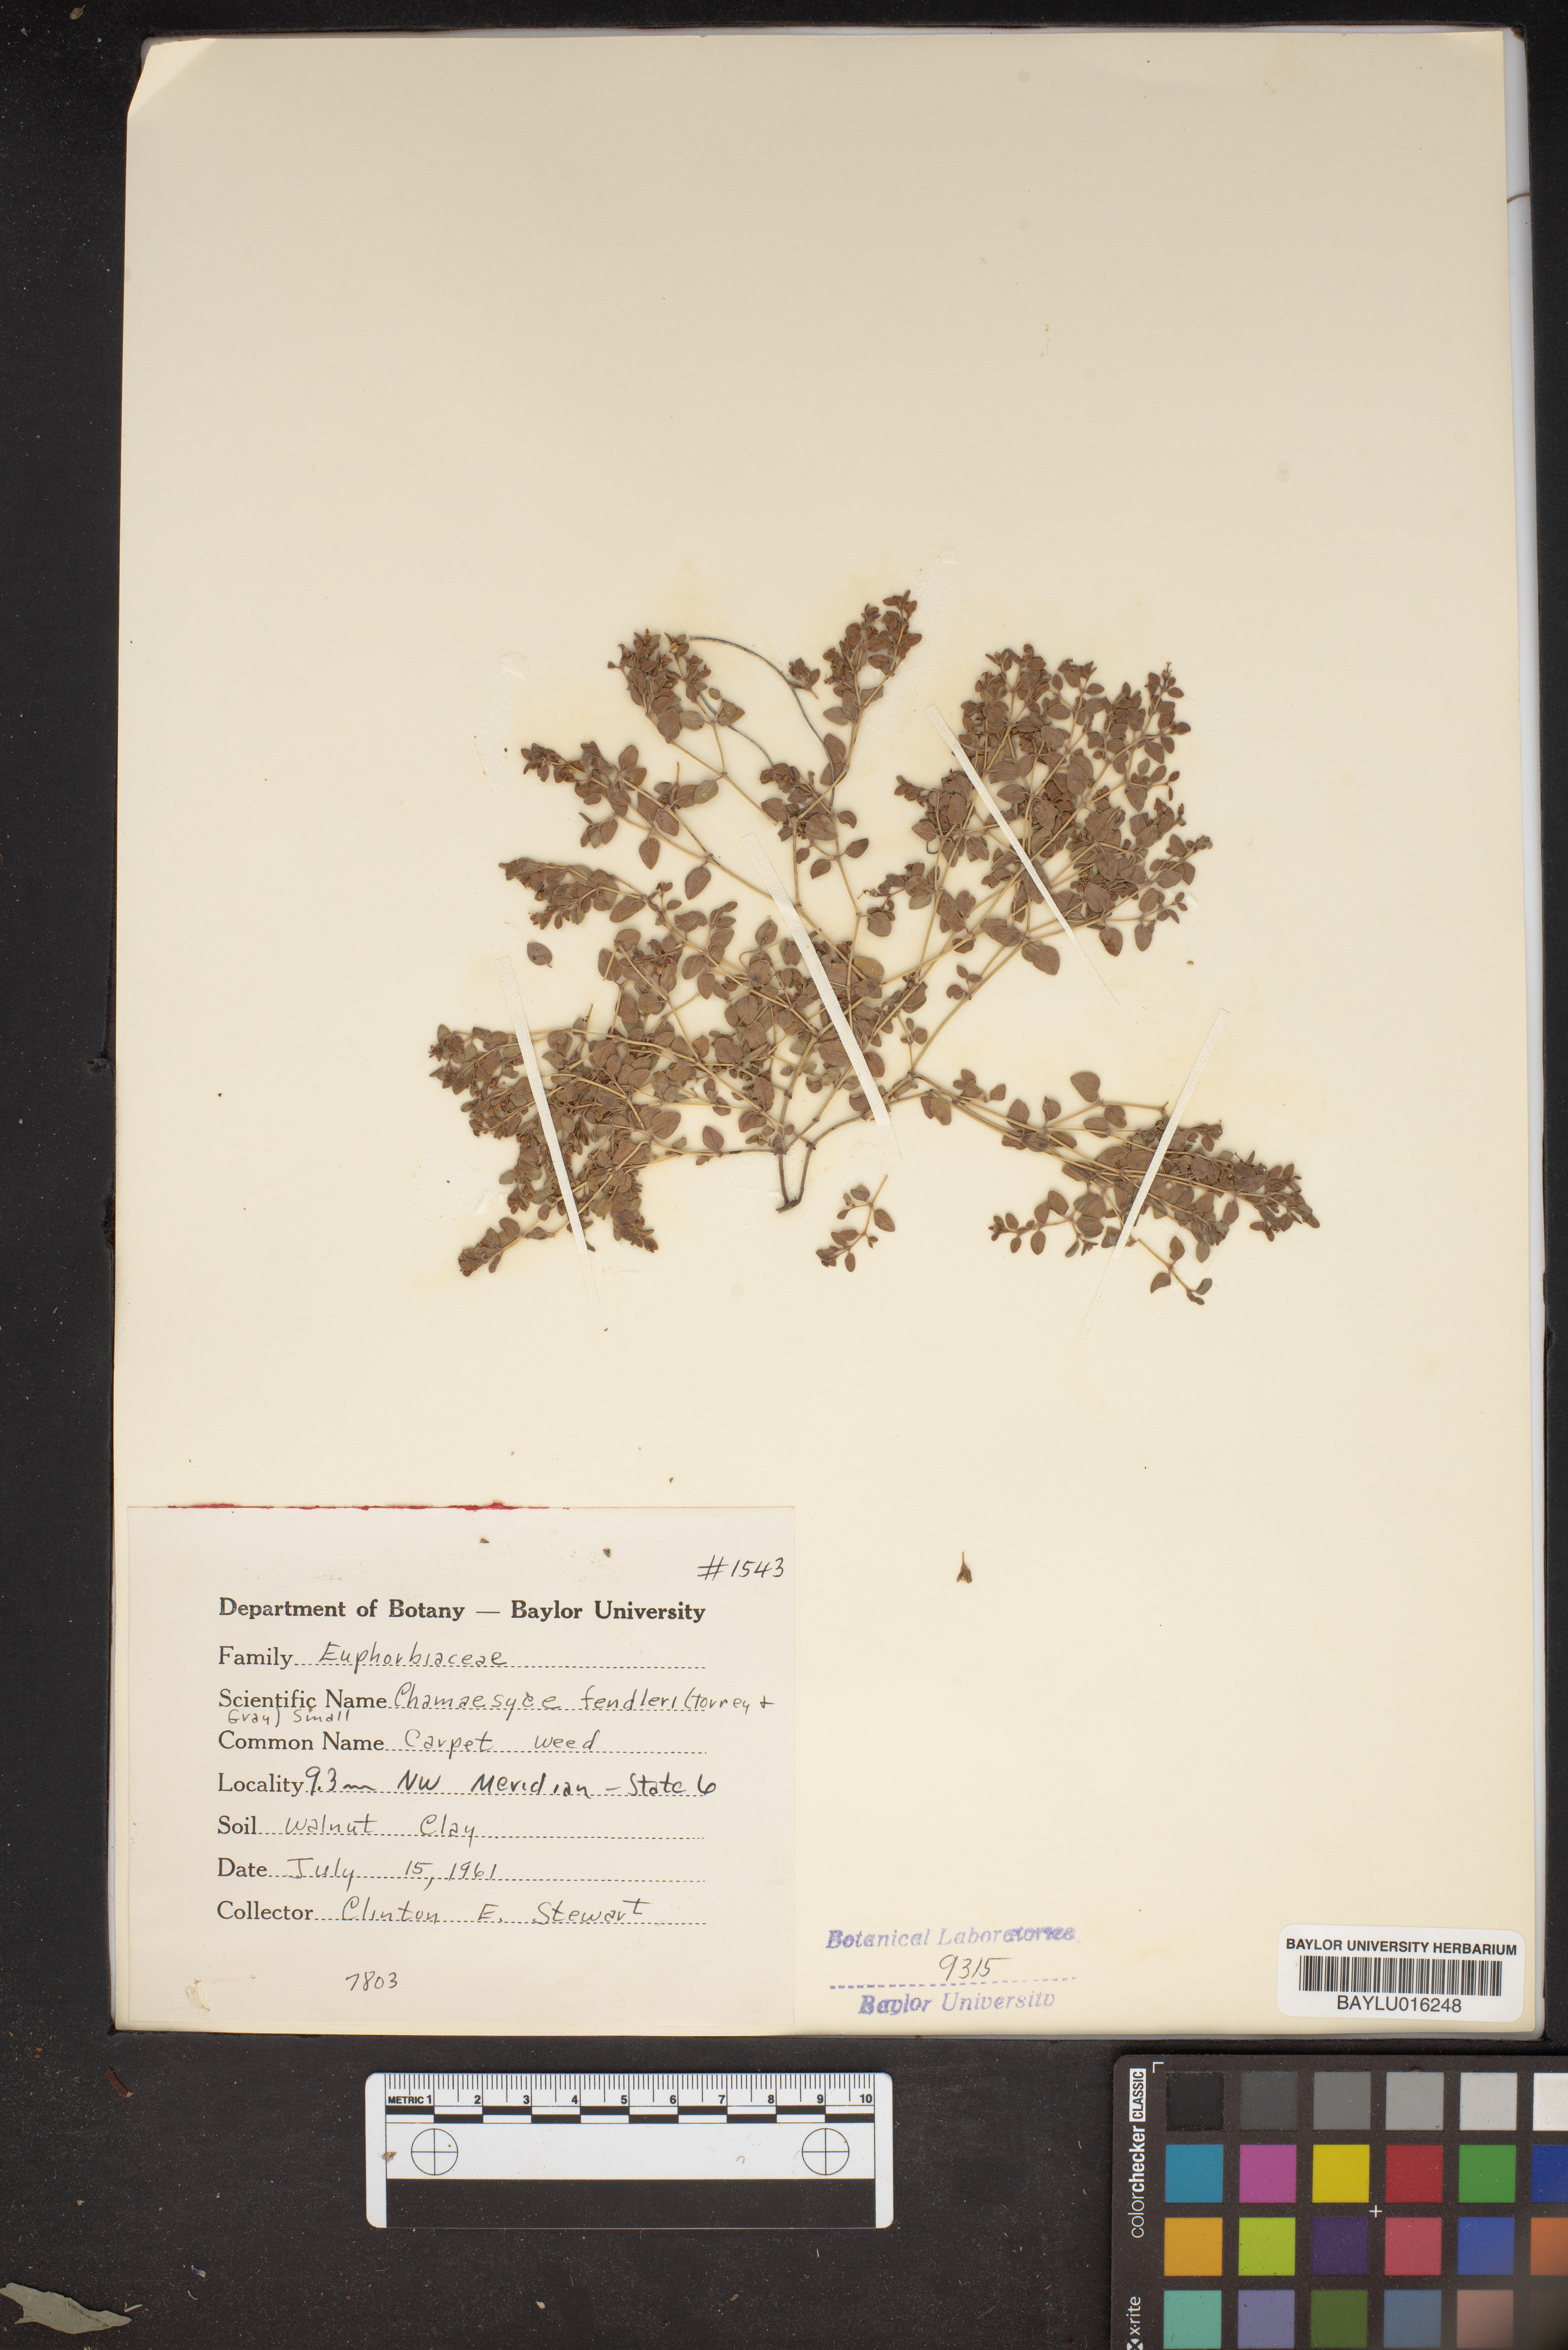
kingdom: Plantae
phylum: Tracheophyta
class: Magnoliopsida
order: Malpighiales
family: Euphorbiaceae
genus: Euphorbia
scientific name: Euphorbia fendleri
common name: Fendler's euphorbia
